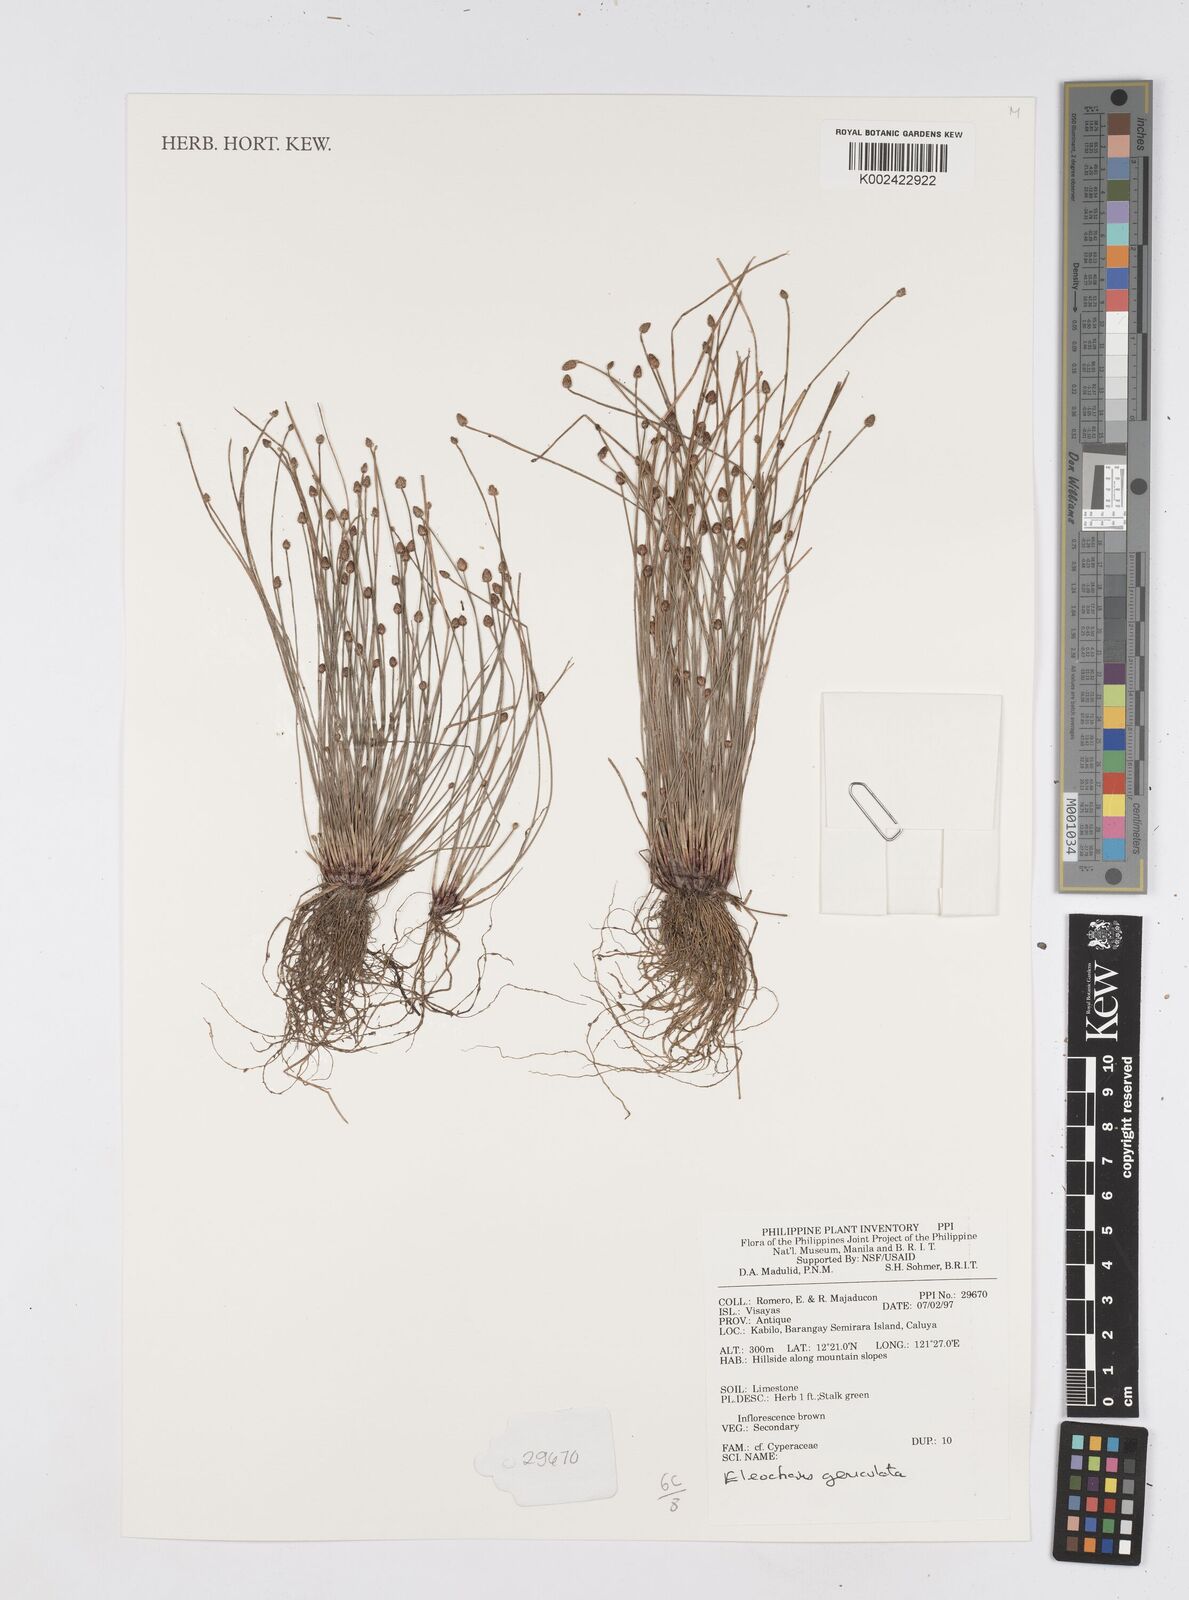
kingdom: Plantae
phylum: Tracheophyta
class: Liliopsida
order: Poales
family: Cyperaceae
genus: Eleocharis
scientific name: Eleocharis geniculata
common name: Canada spikesedge
